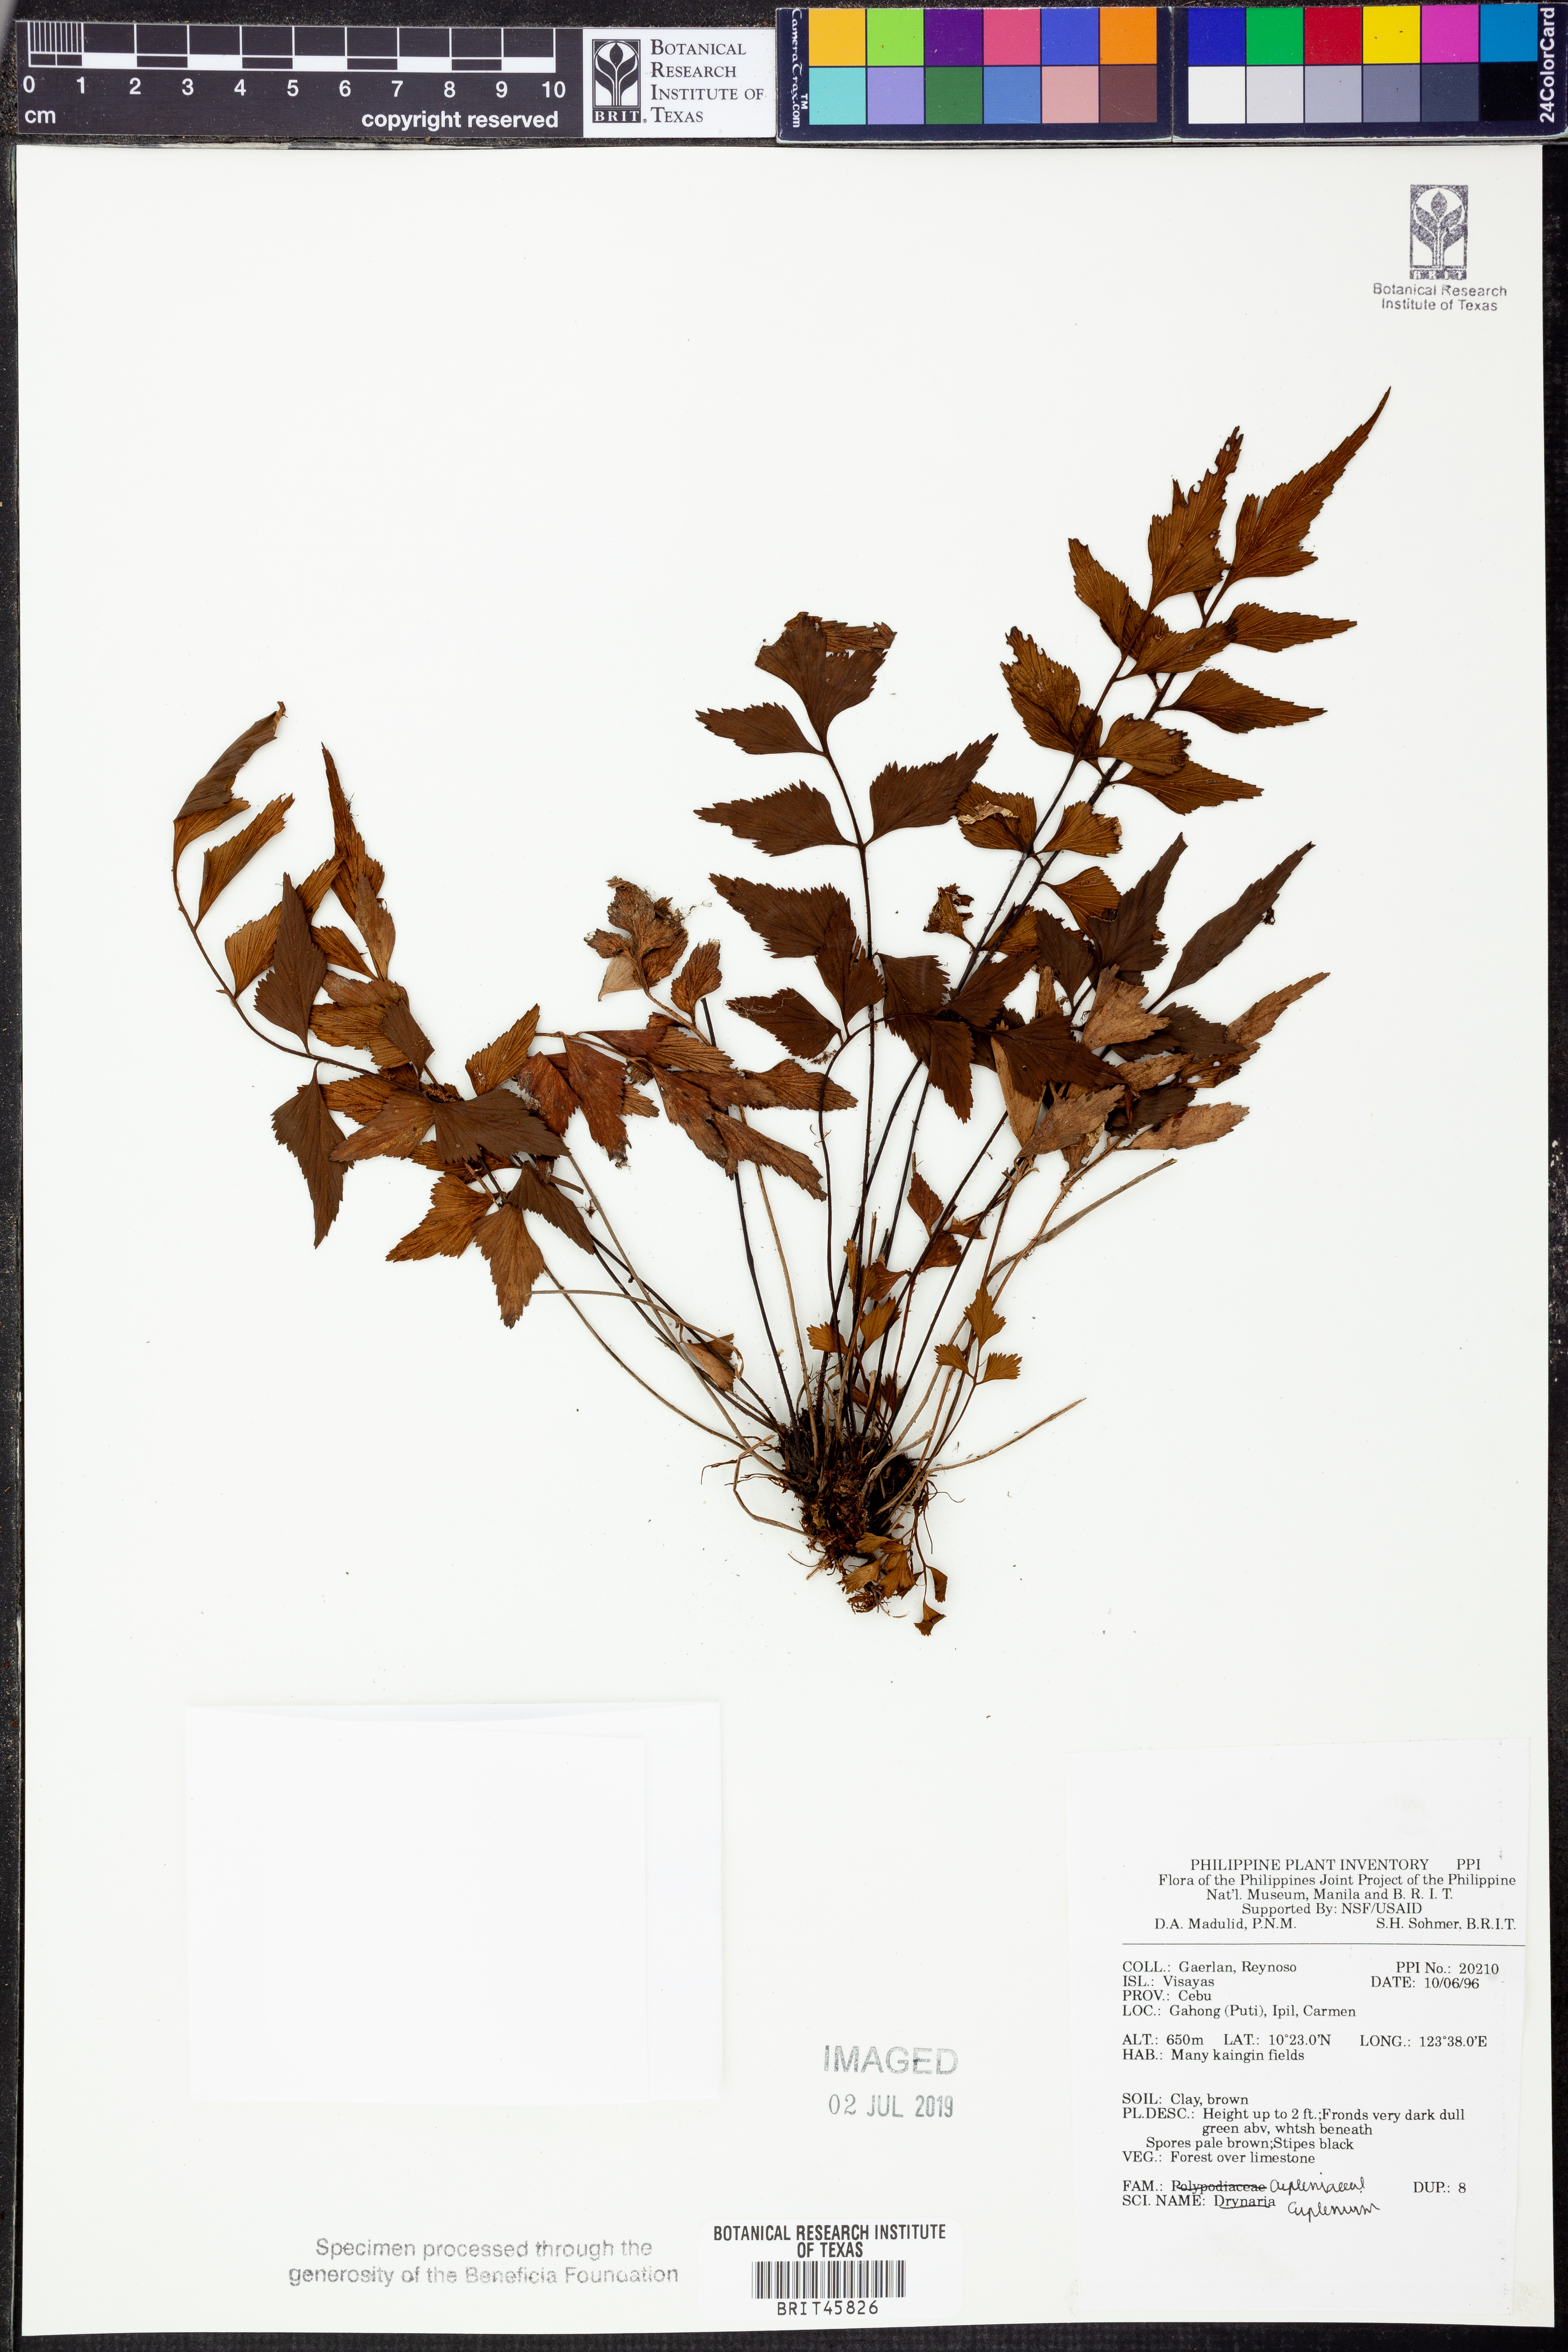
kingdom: Plantae
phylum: Tracheophyta
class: Polypodiopsida
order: Polypodiales
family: Aspleniaceae
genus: Asplenium
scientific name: Asplenium
